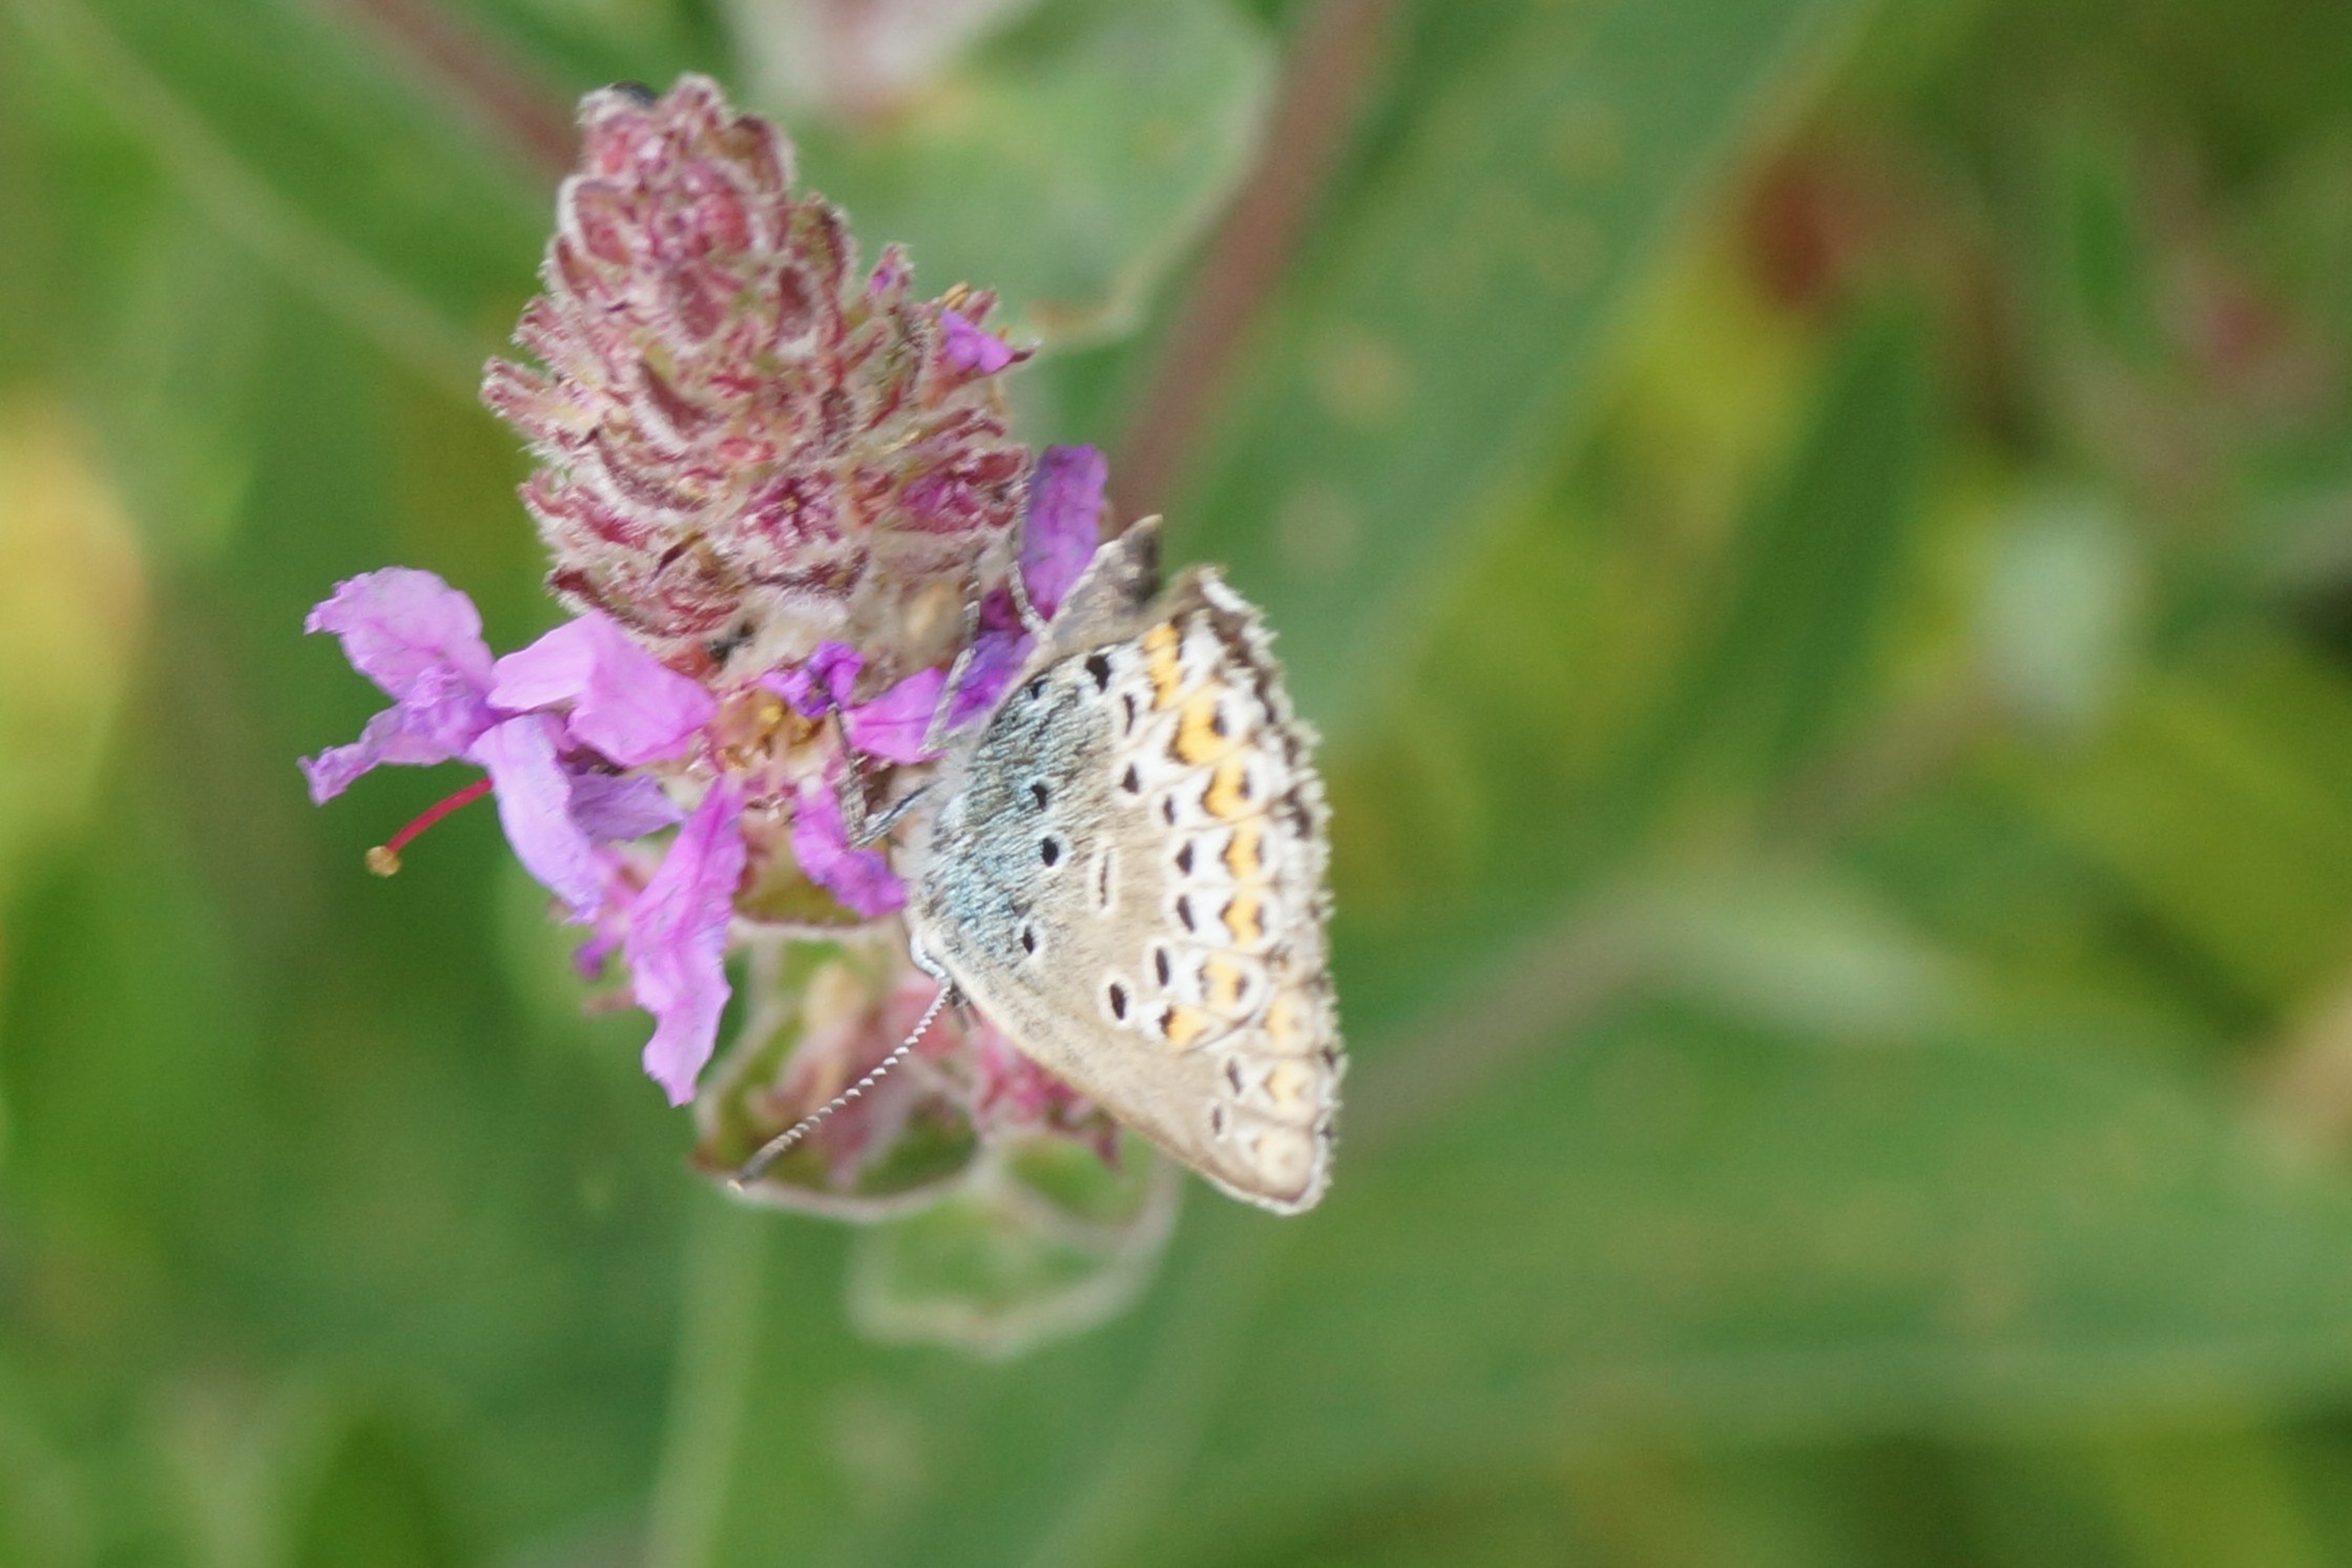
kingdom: Animalia
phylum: Arthropoda
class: Insecta
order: Lepidoptera
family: Lycaenidae
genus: Lycaeides
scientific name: Lycaeides idas
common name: Foranderlig blåfugl
